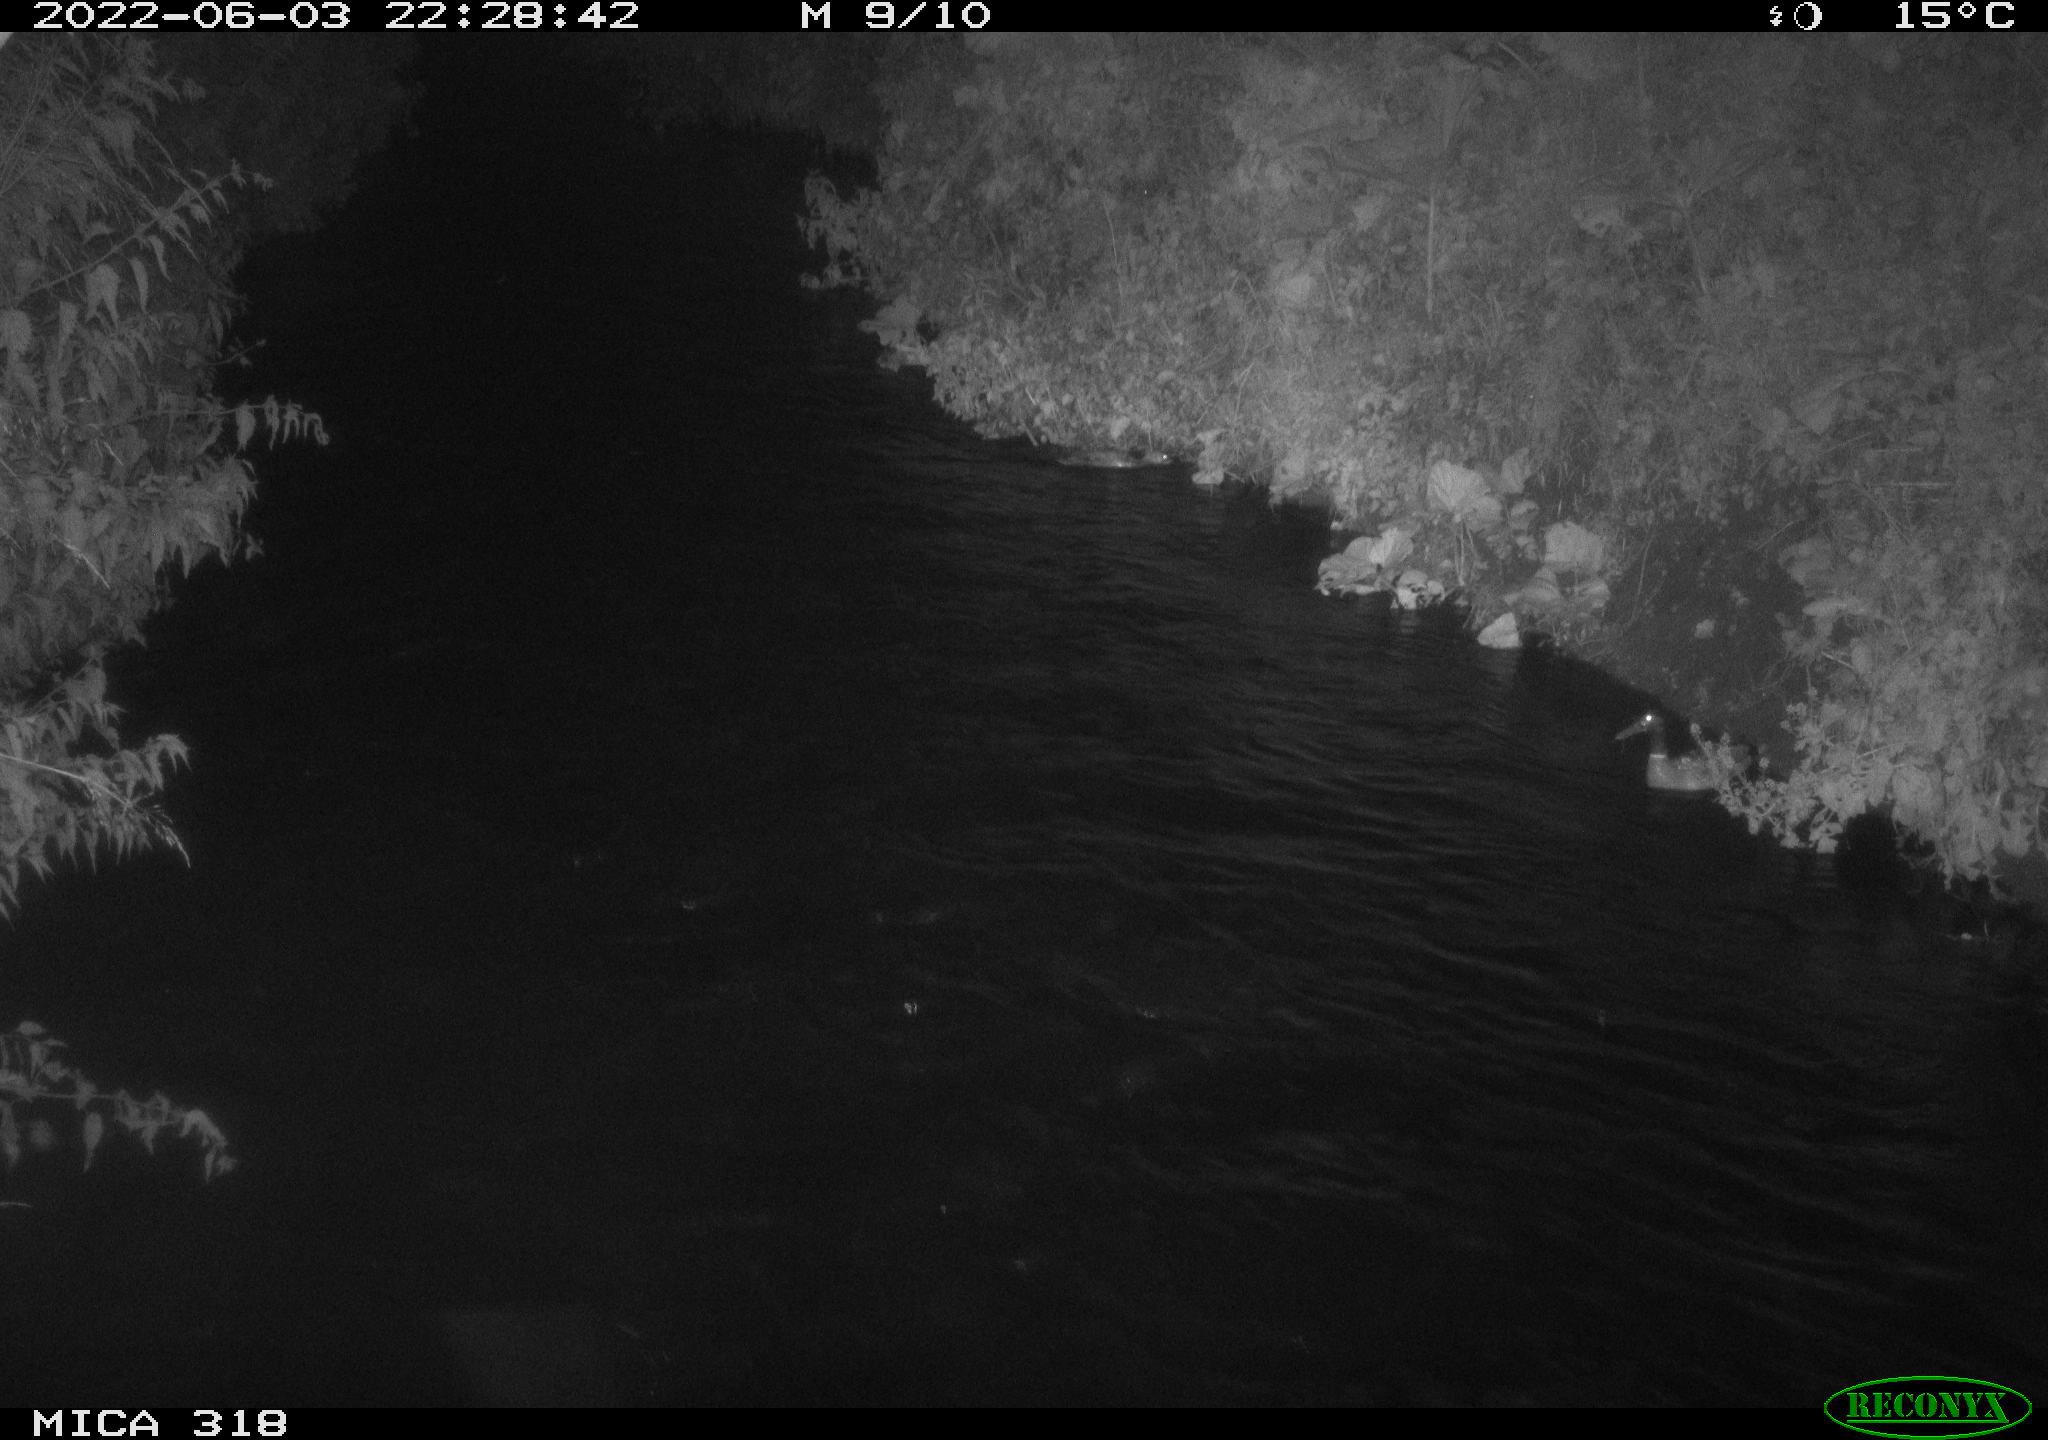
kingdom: Animalia
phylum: Chordata
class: Aves
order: Pelecaniformes
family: Ardeidae
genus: Ardea
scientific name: Ardea cinerea
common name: Grey heron
